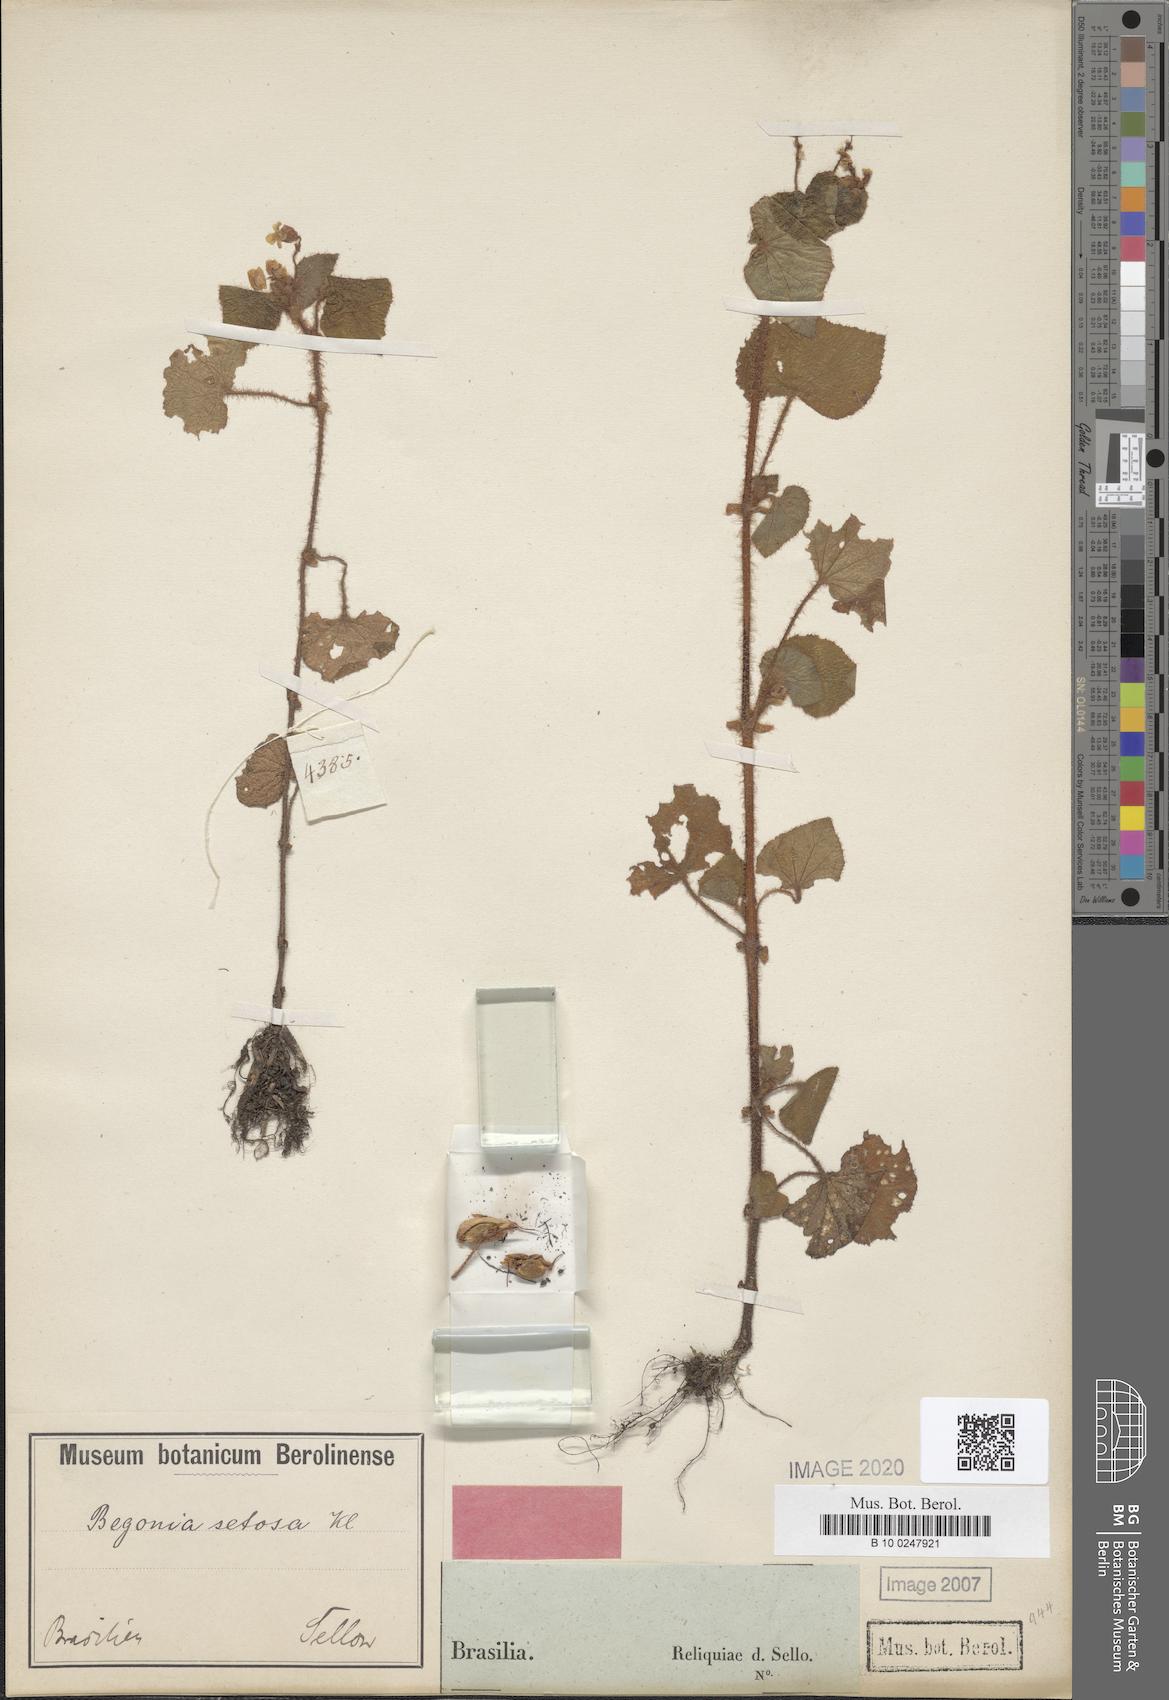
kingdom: Plantae
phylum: Tracheophyta
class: Magnoliopsida
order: Cucurbitales
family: Begoniaceae
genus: Begonia
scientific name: Begonia fischeri
